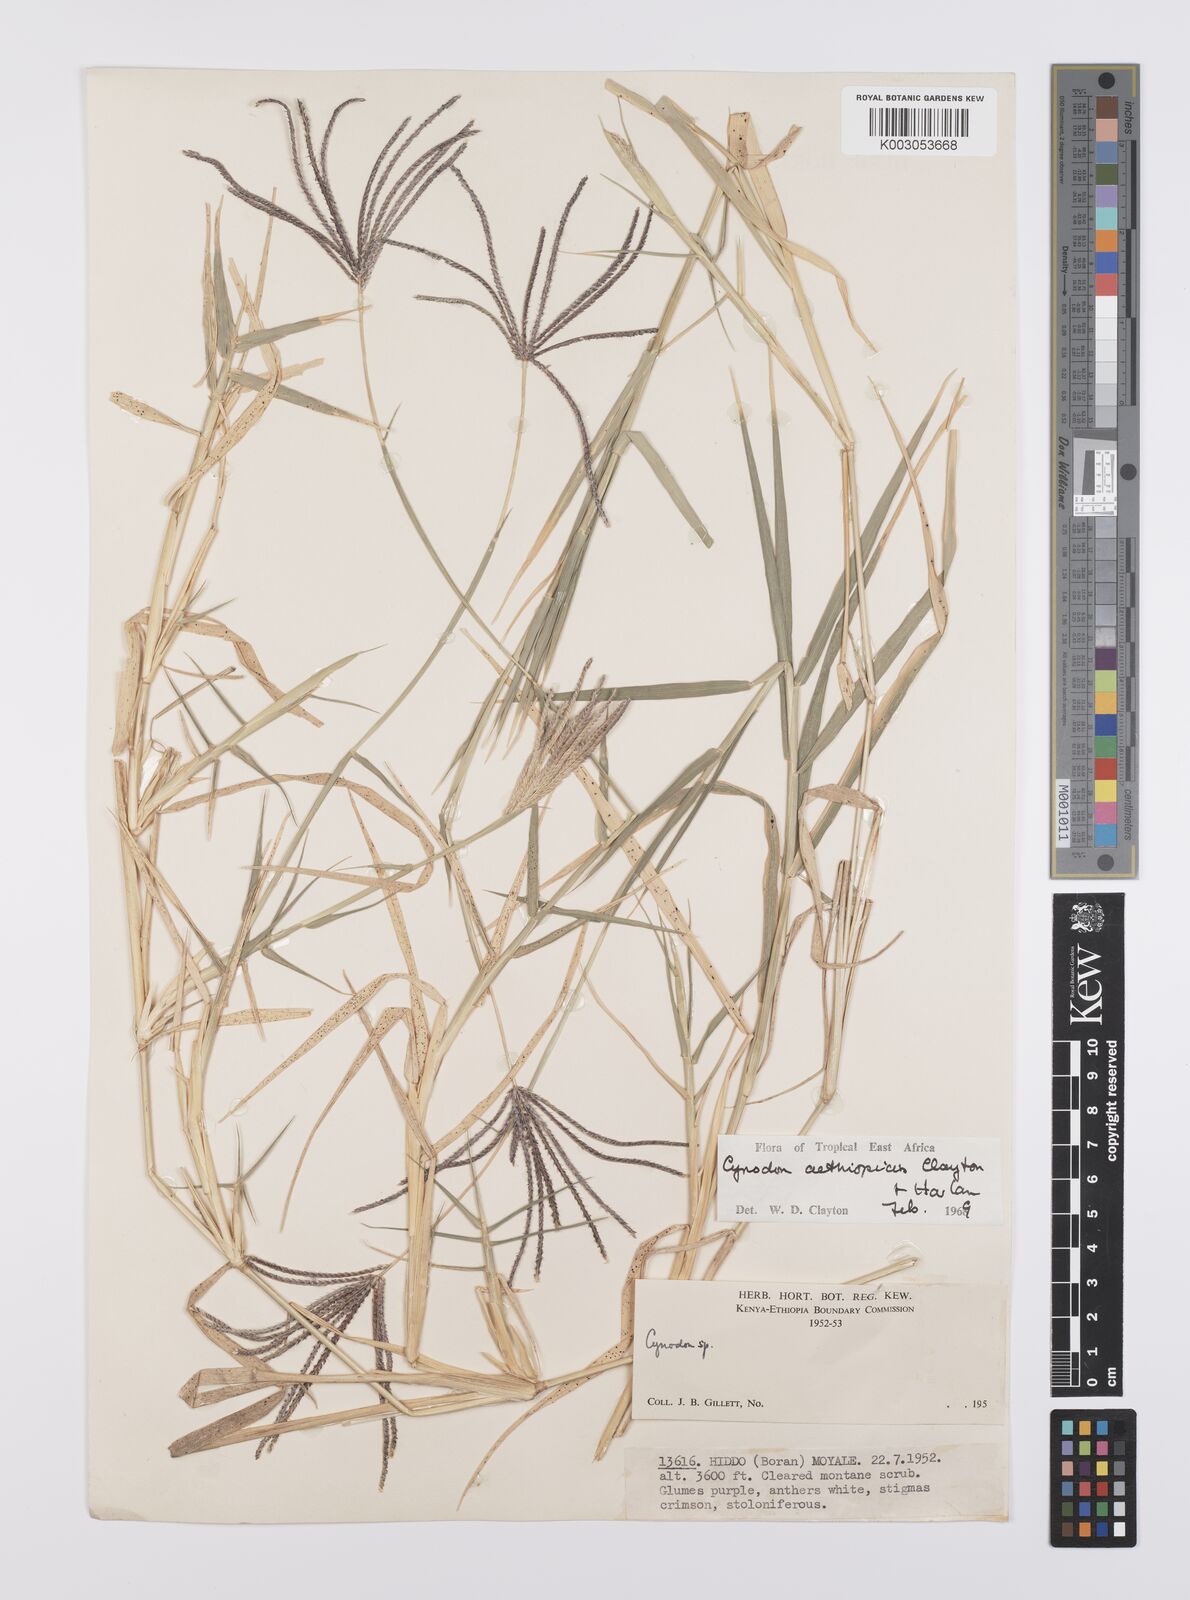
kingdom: Plantae
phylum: Tracheophyta
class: Liliopsida
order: Poales
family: Poaceae
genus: Cynodon
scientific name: Cynodon aethiopicus
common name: Ethiopian dogstooth grass
